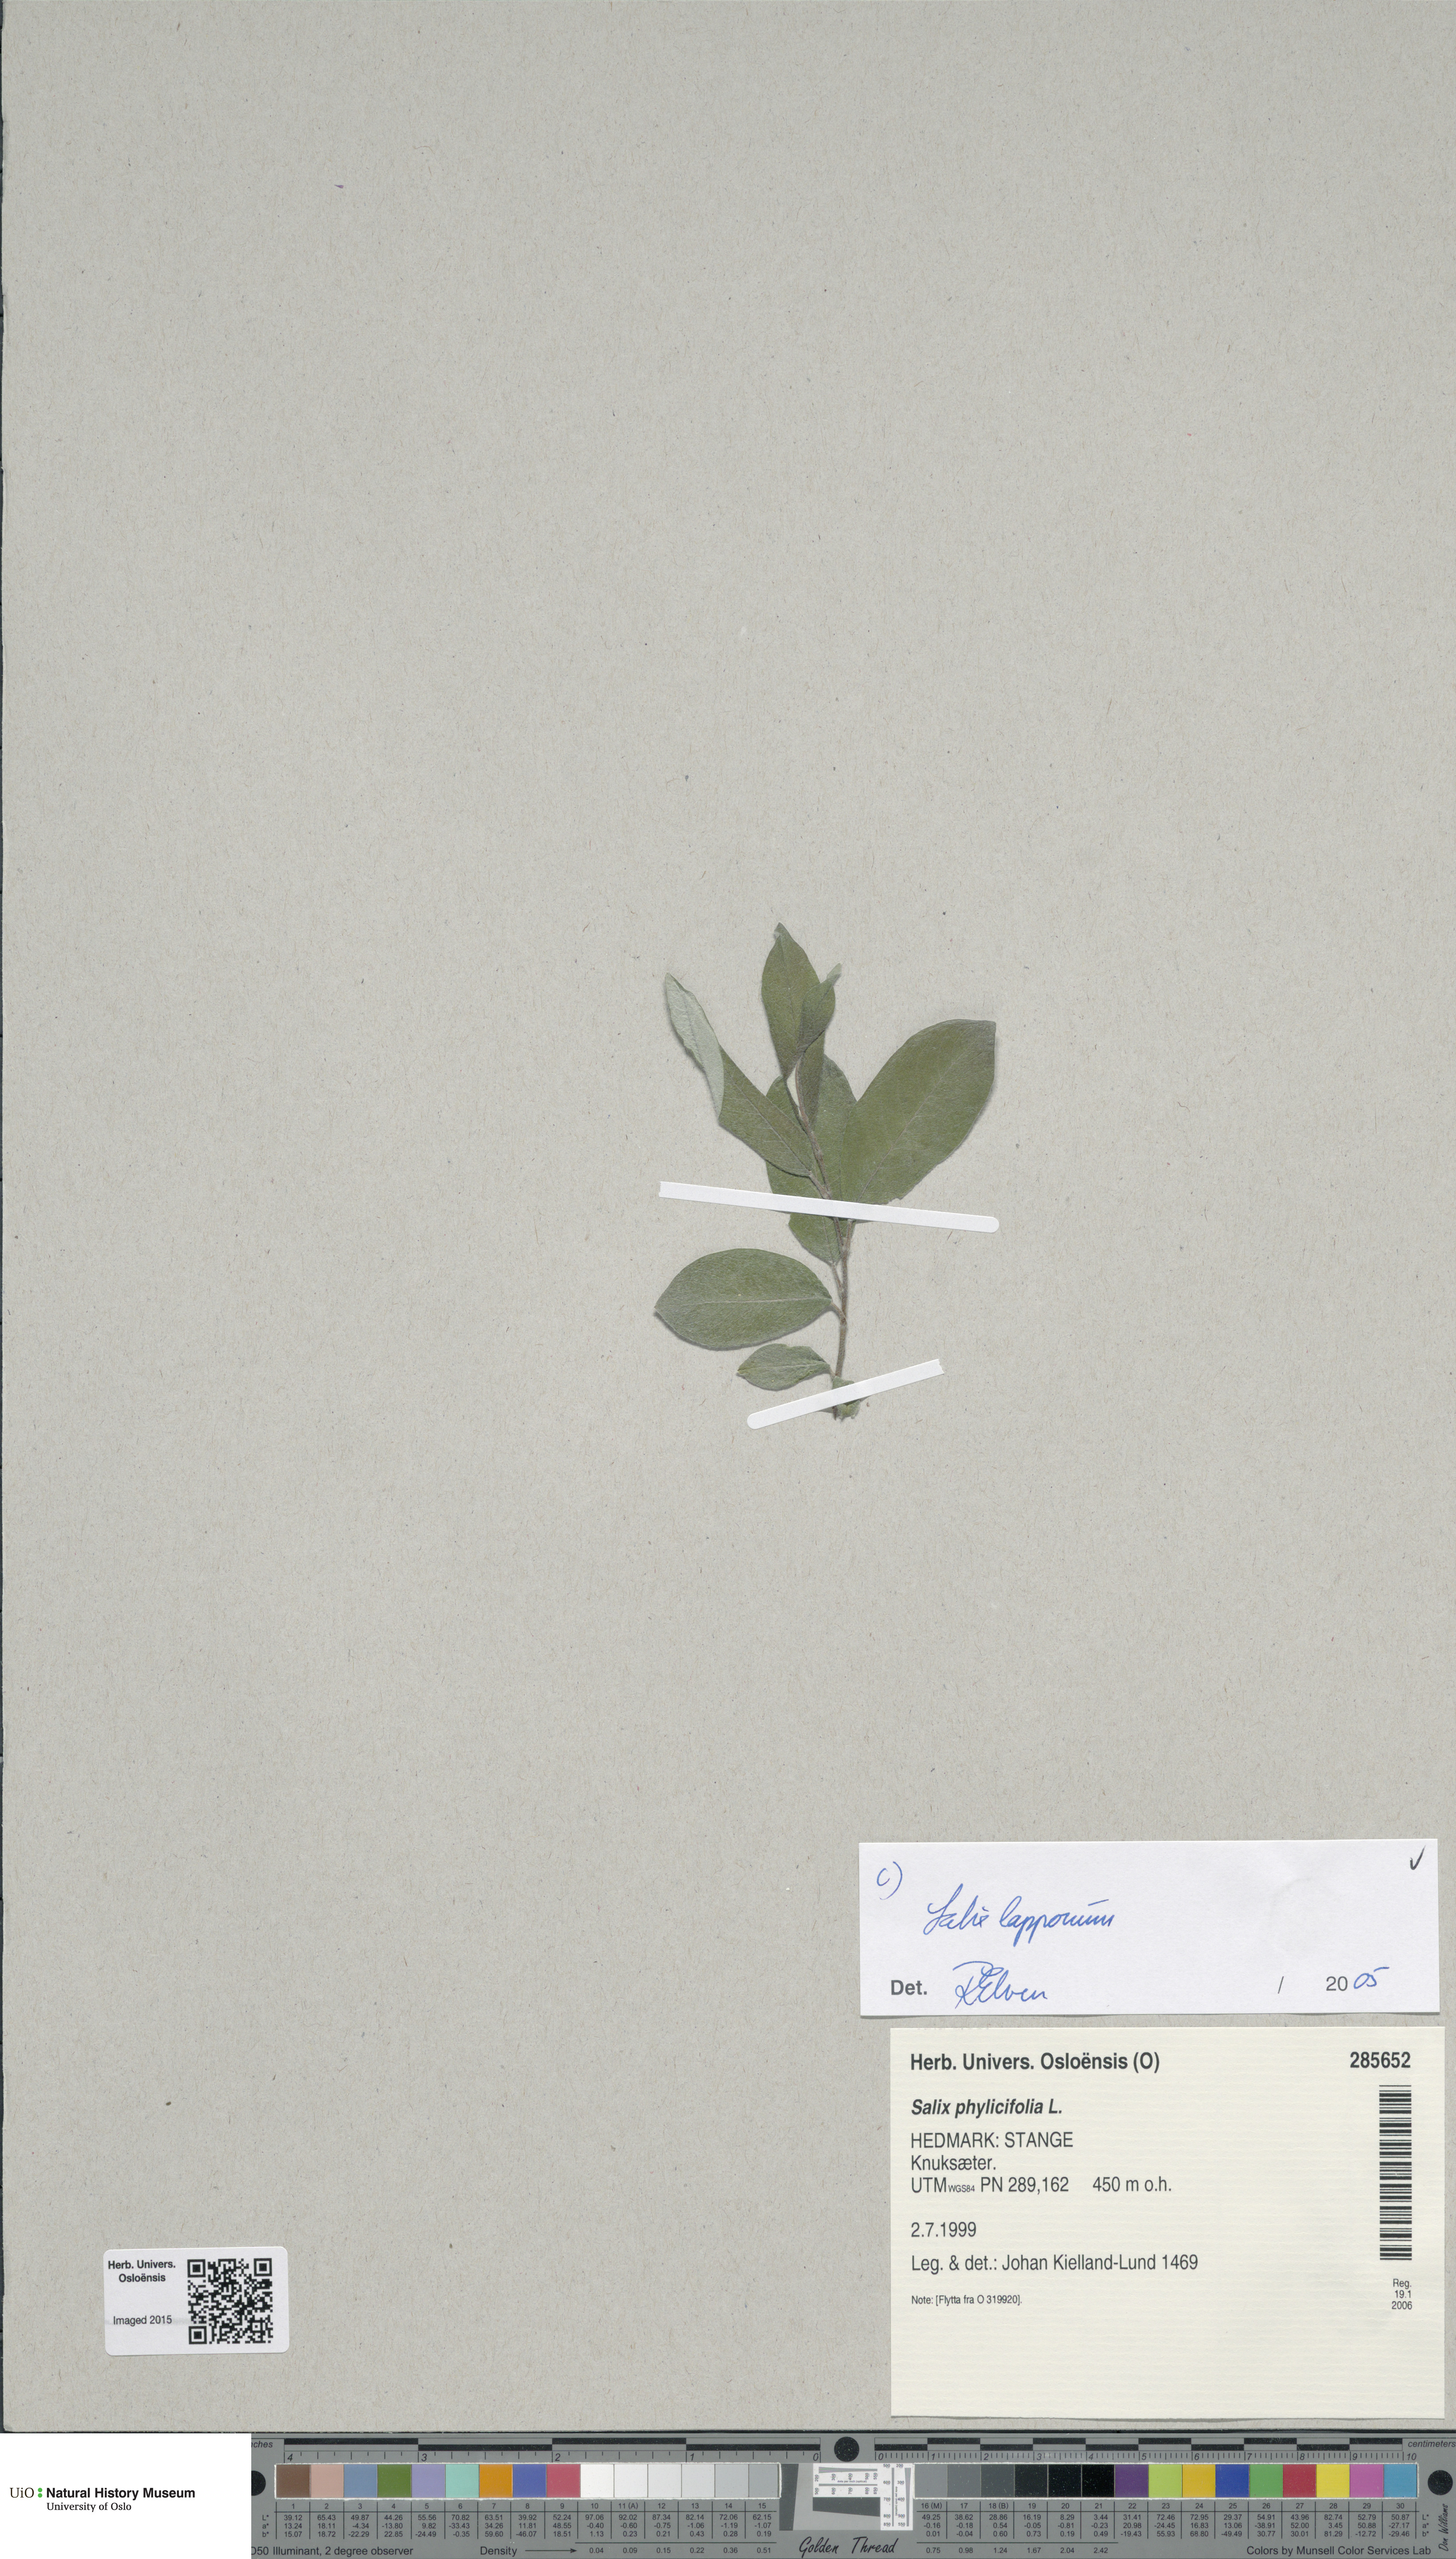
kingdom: Plantae
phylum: Tracheophyta
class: Magnoliopsida
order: Malpighiales
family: Salicaceae
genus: Salix
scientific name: Salix lapponum
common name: Downy willow
